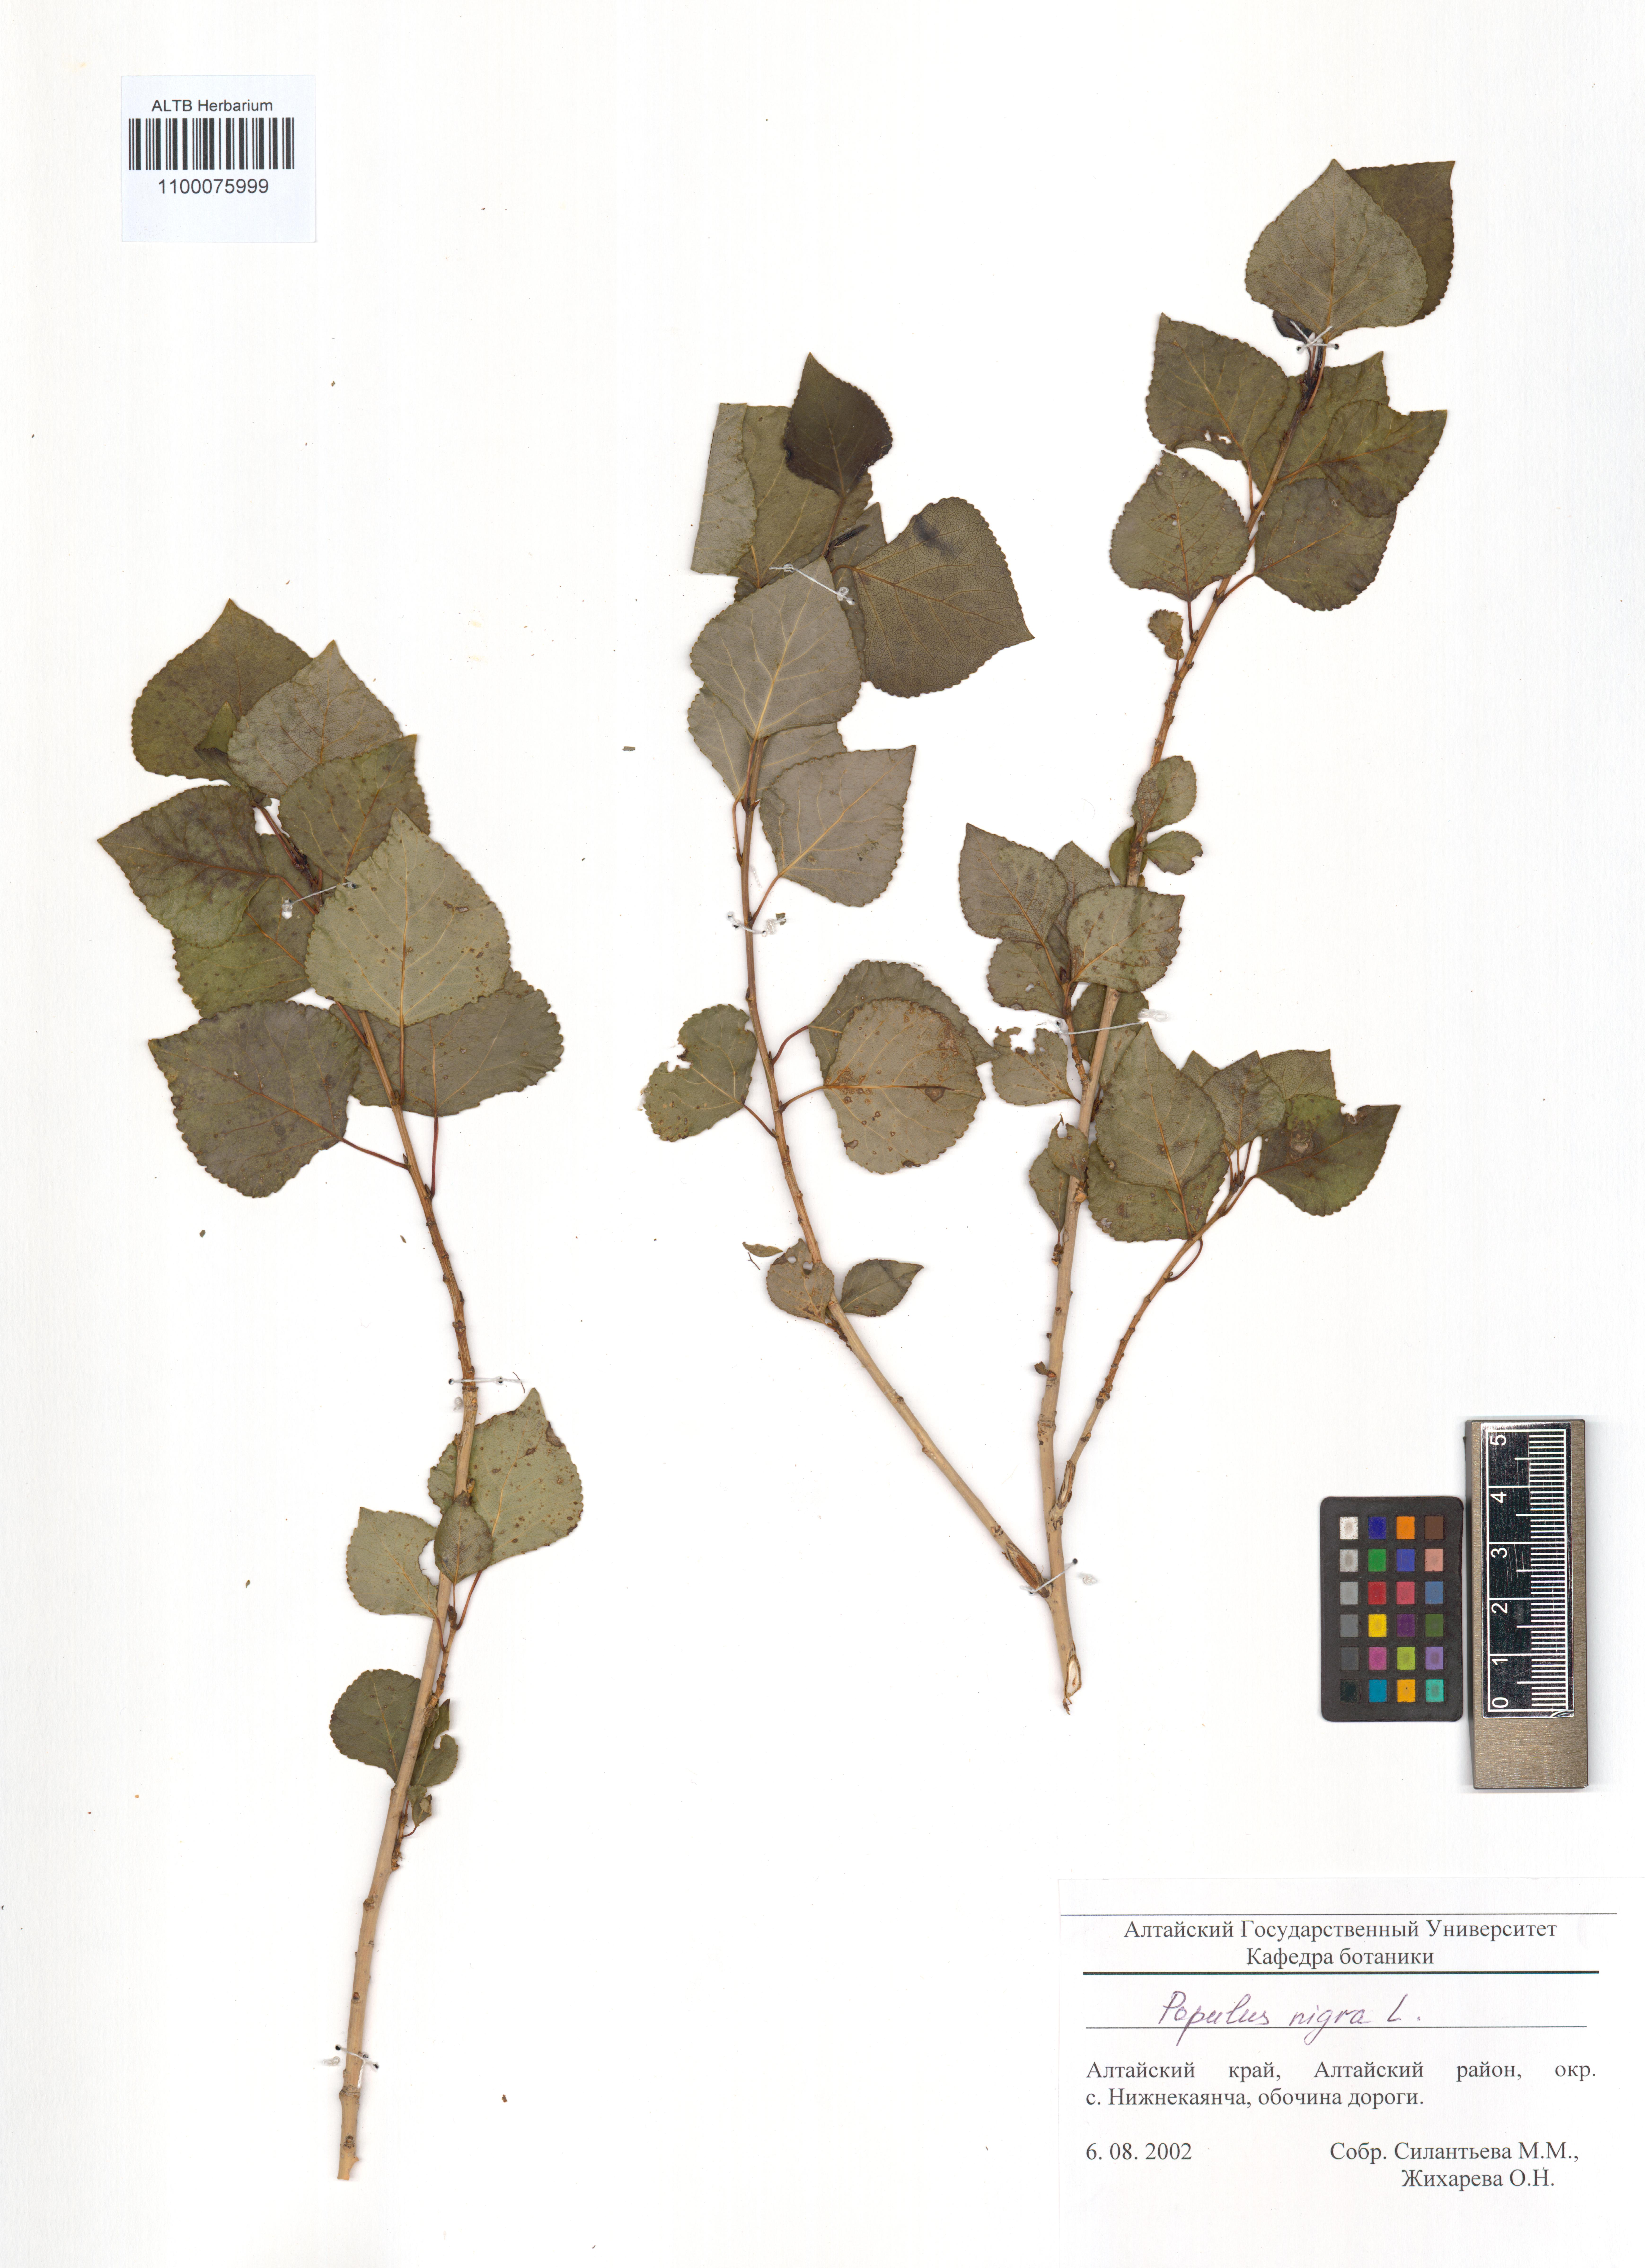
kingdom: Plantae
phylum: Tracheophyta
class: Magnoliopsida
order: Malpighiales
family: Salicaceae
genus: Populus
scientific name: Populus nigra
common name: Black poplar
